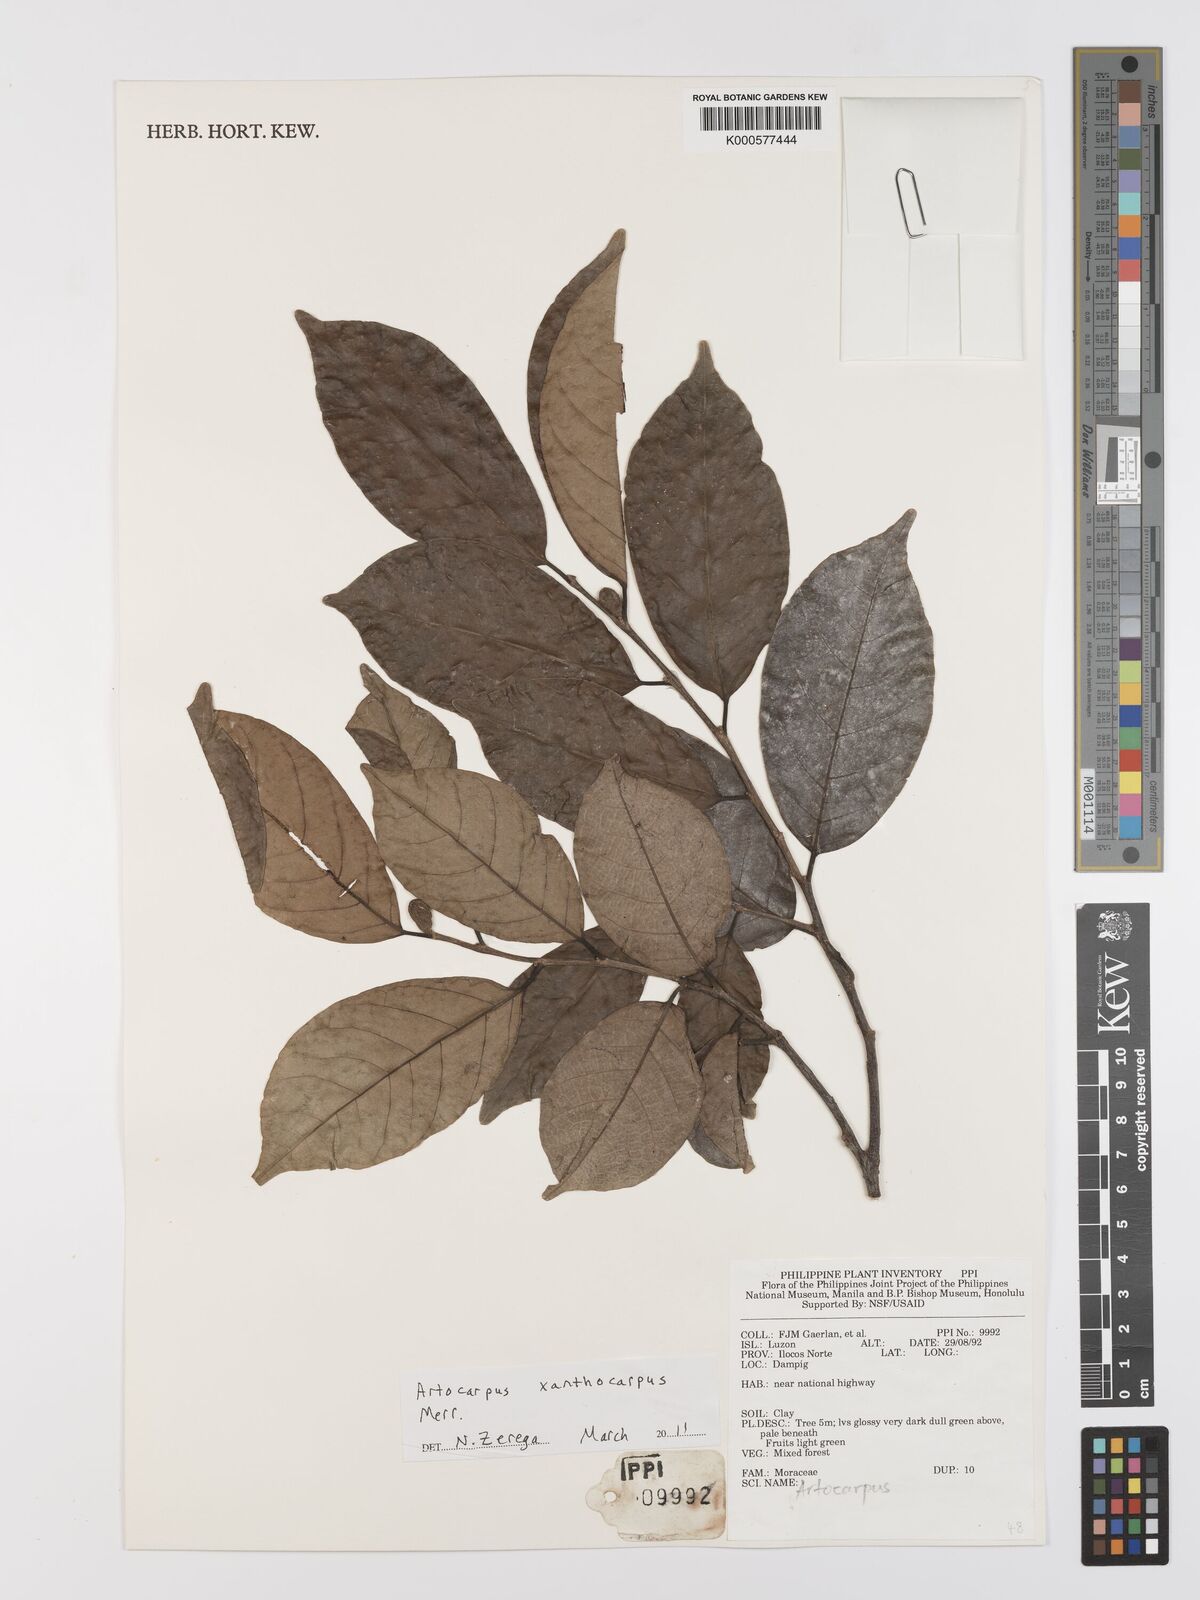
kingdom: Plantae
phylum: Tracheophyta
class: Magnoliopsida
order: Rosales
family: Moraceae
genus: Artocarpus
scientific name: Artocarpus lamellosus
